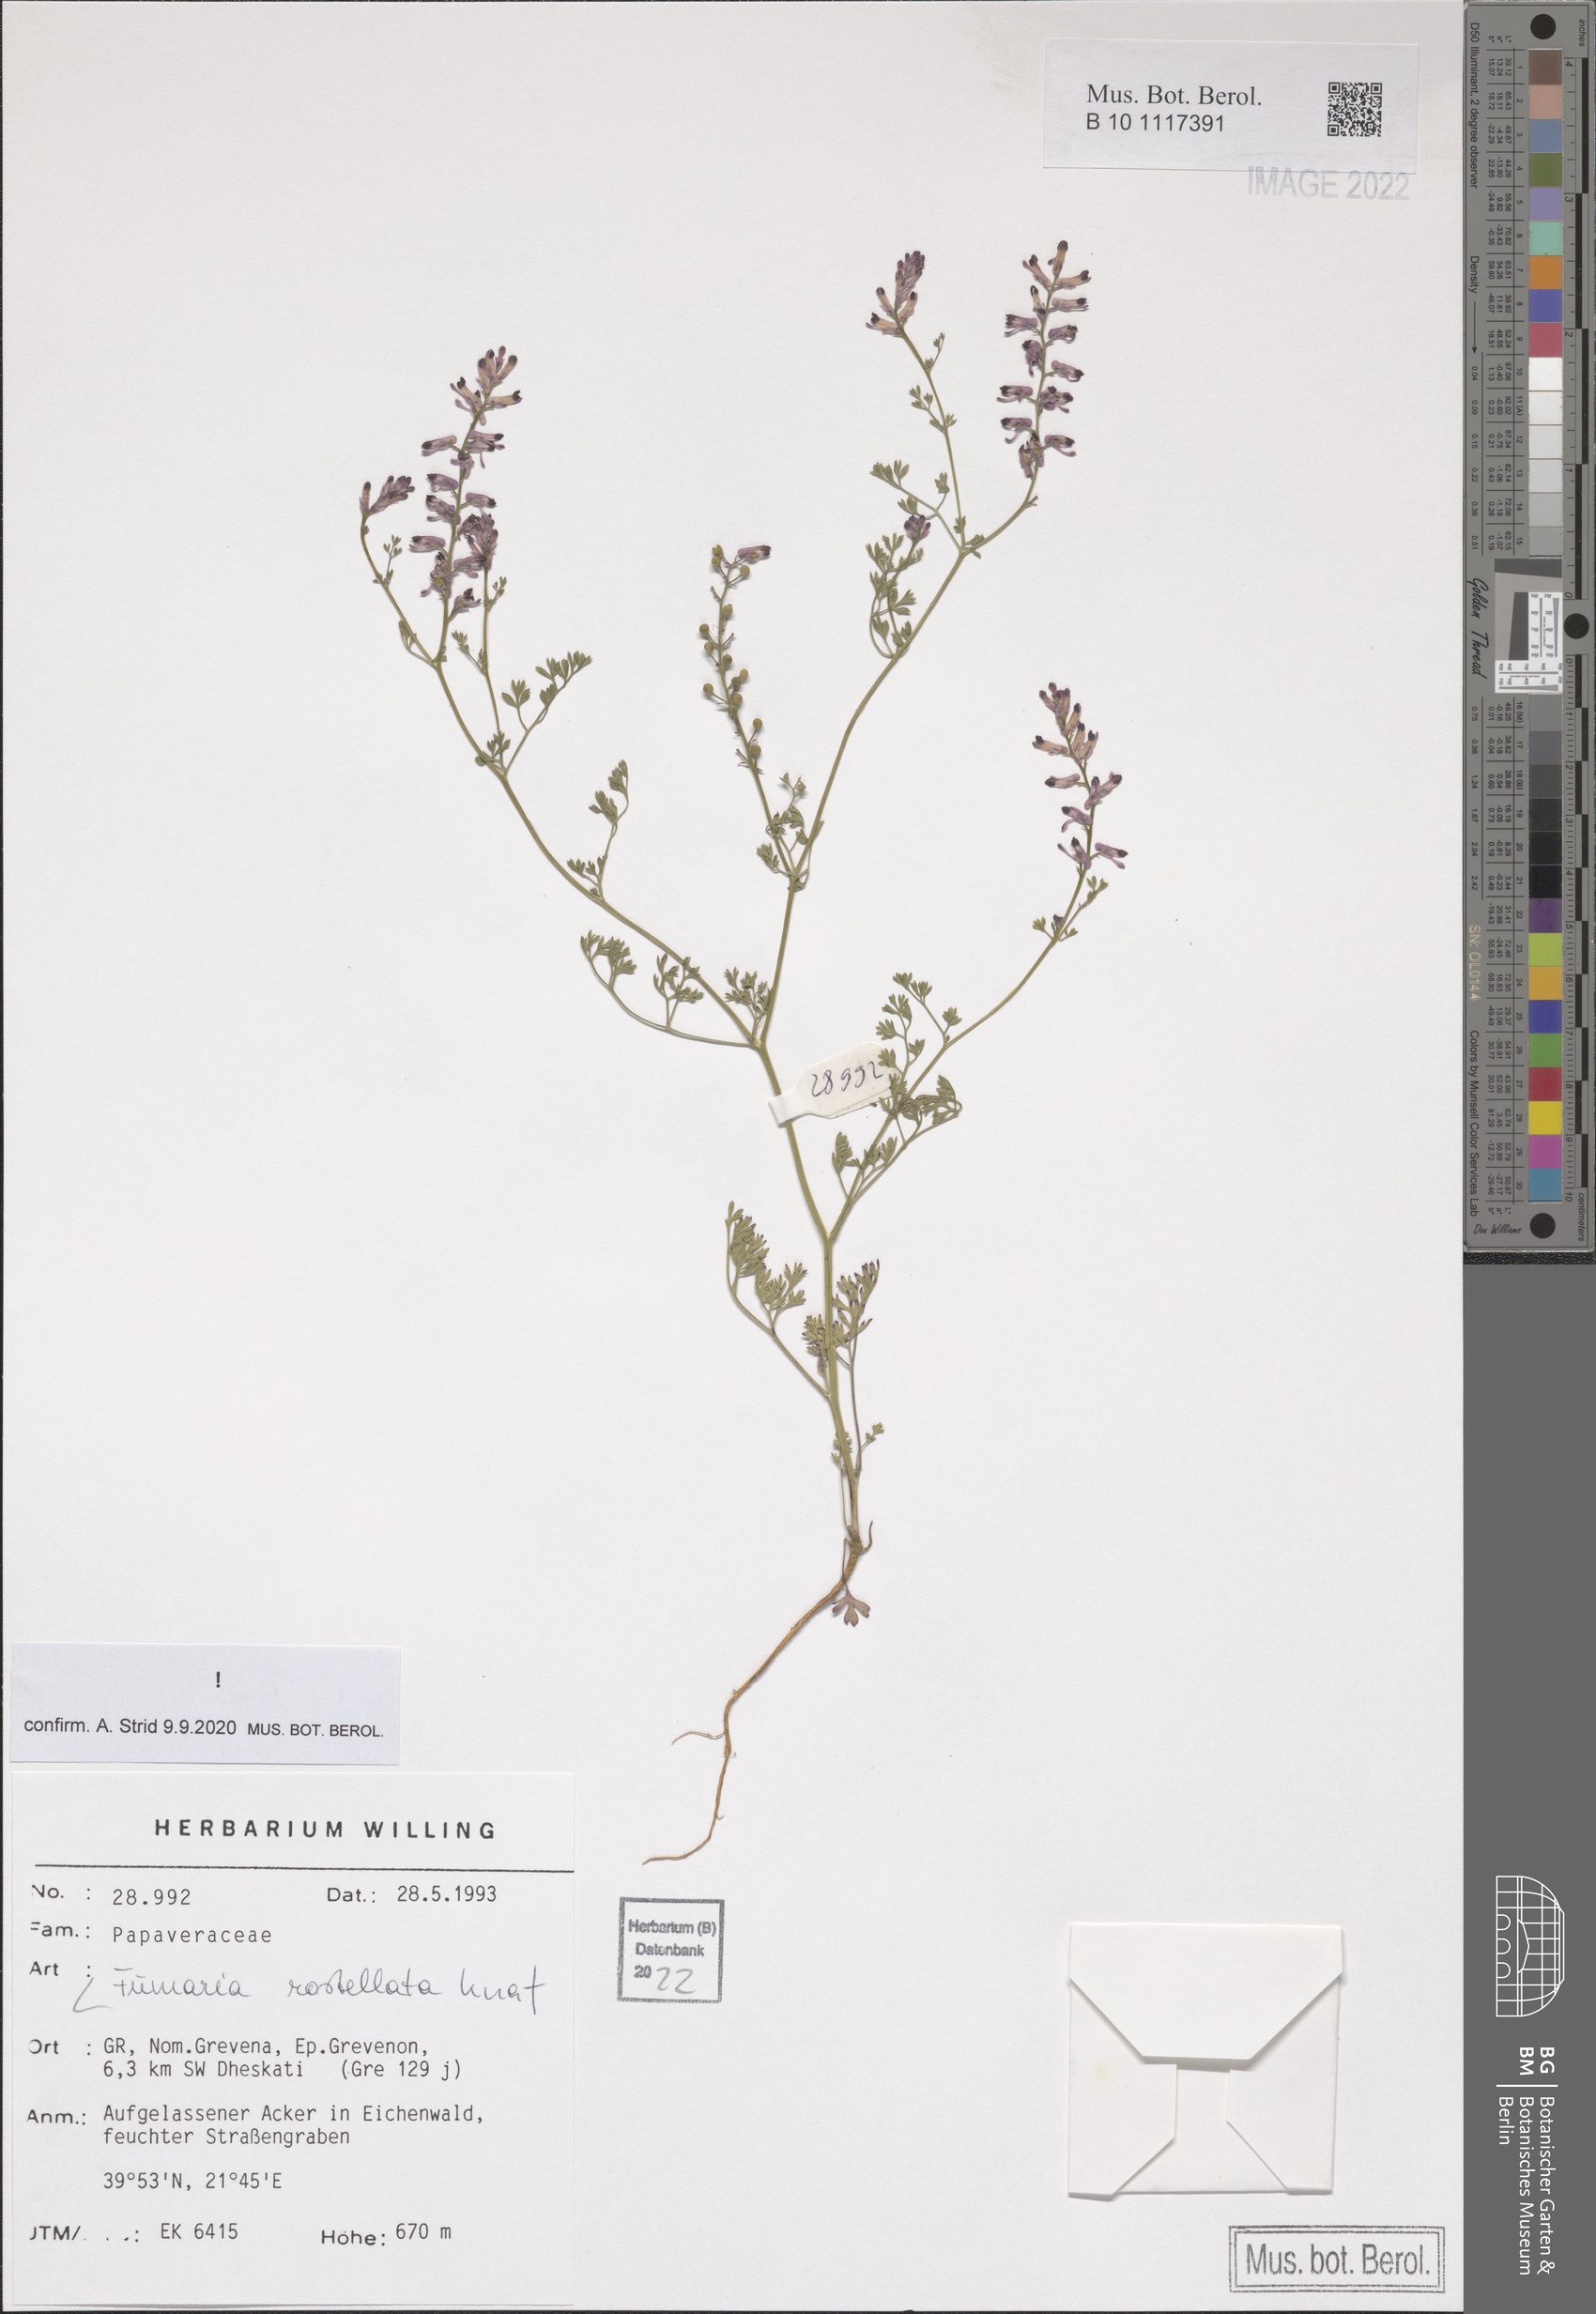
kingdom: Plantae
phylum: Tracheophyta
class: Magnoliopsida
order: Ranunculales
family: Papaveraceae
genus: Fumaria
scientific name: Fumaria rostellata
